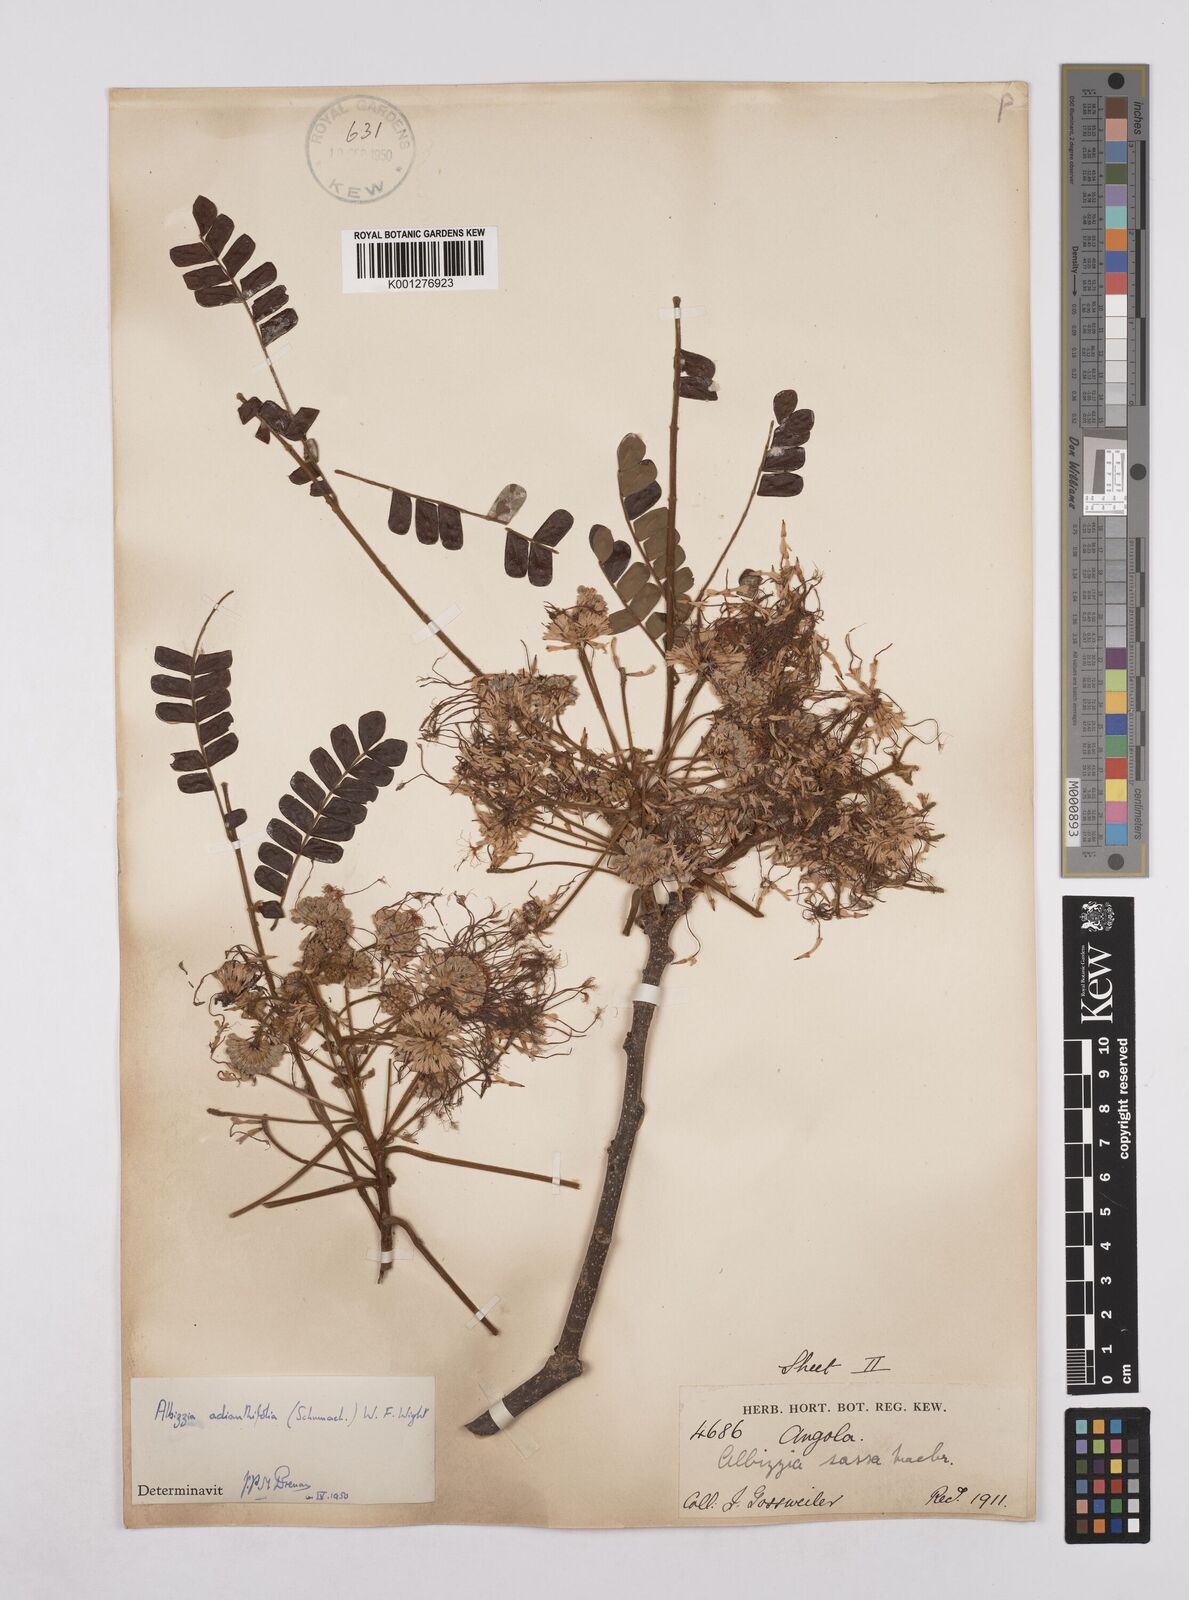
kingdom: Plantae
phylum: Tracheophyta
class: Magnoliopsida
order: Fabales
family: Fabaceae
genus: Albizia
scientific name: Albizia adianthifolia
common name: West african albizia
